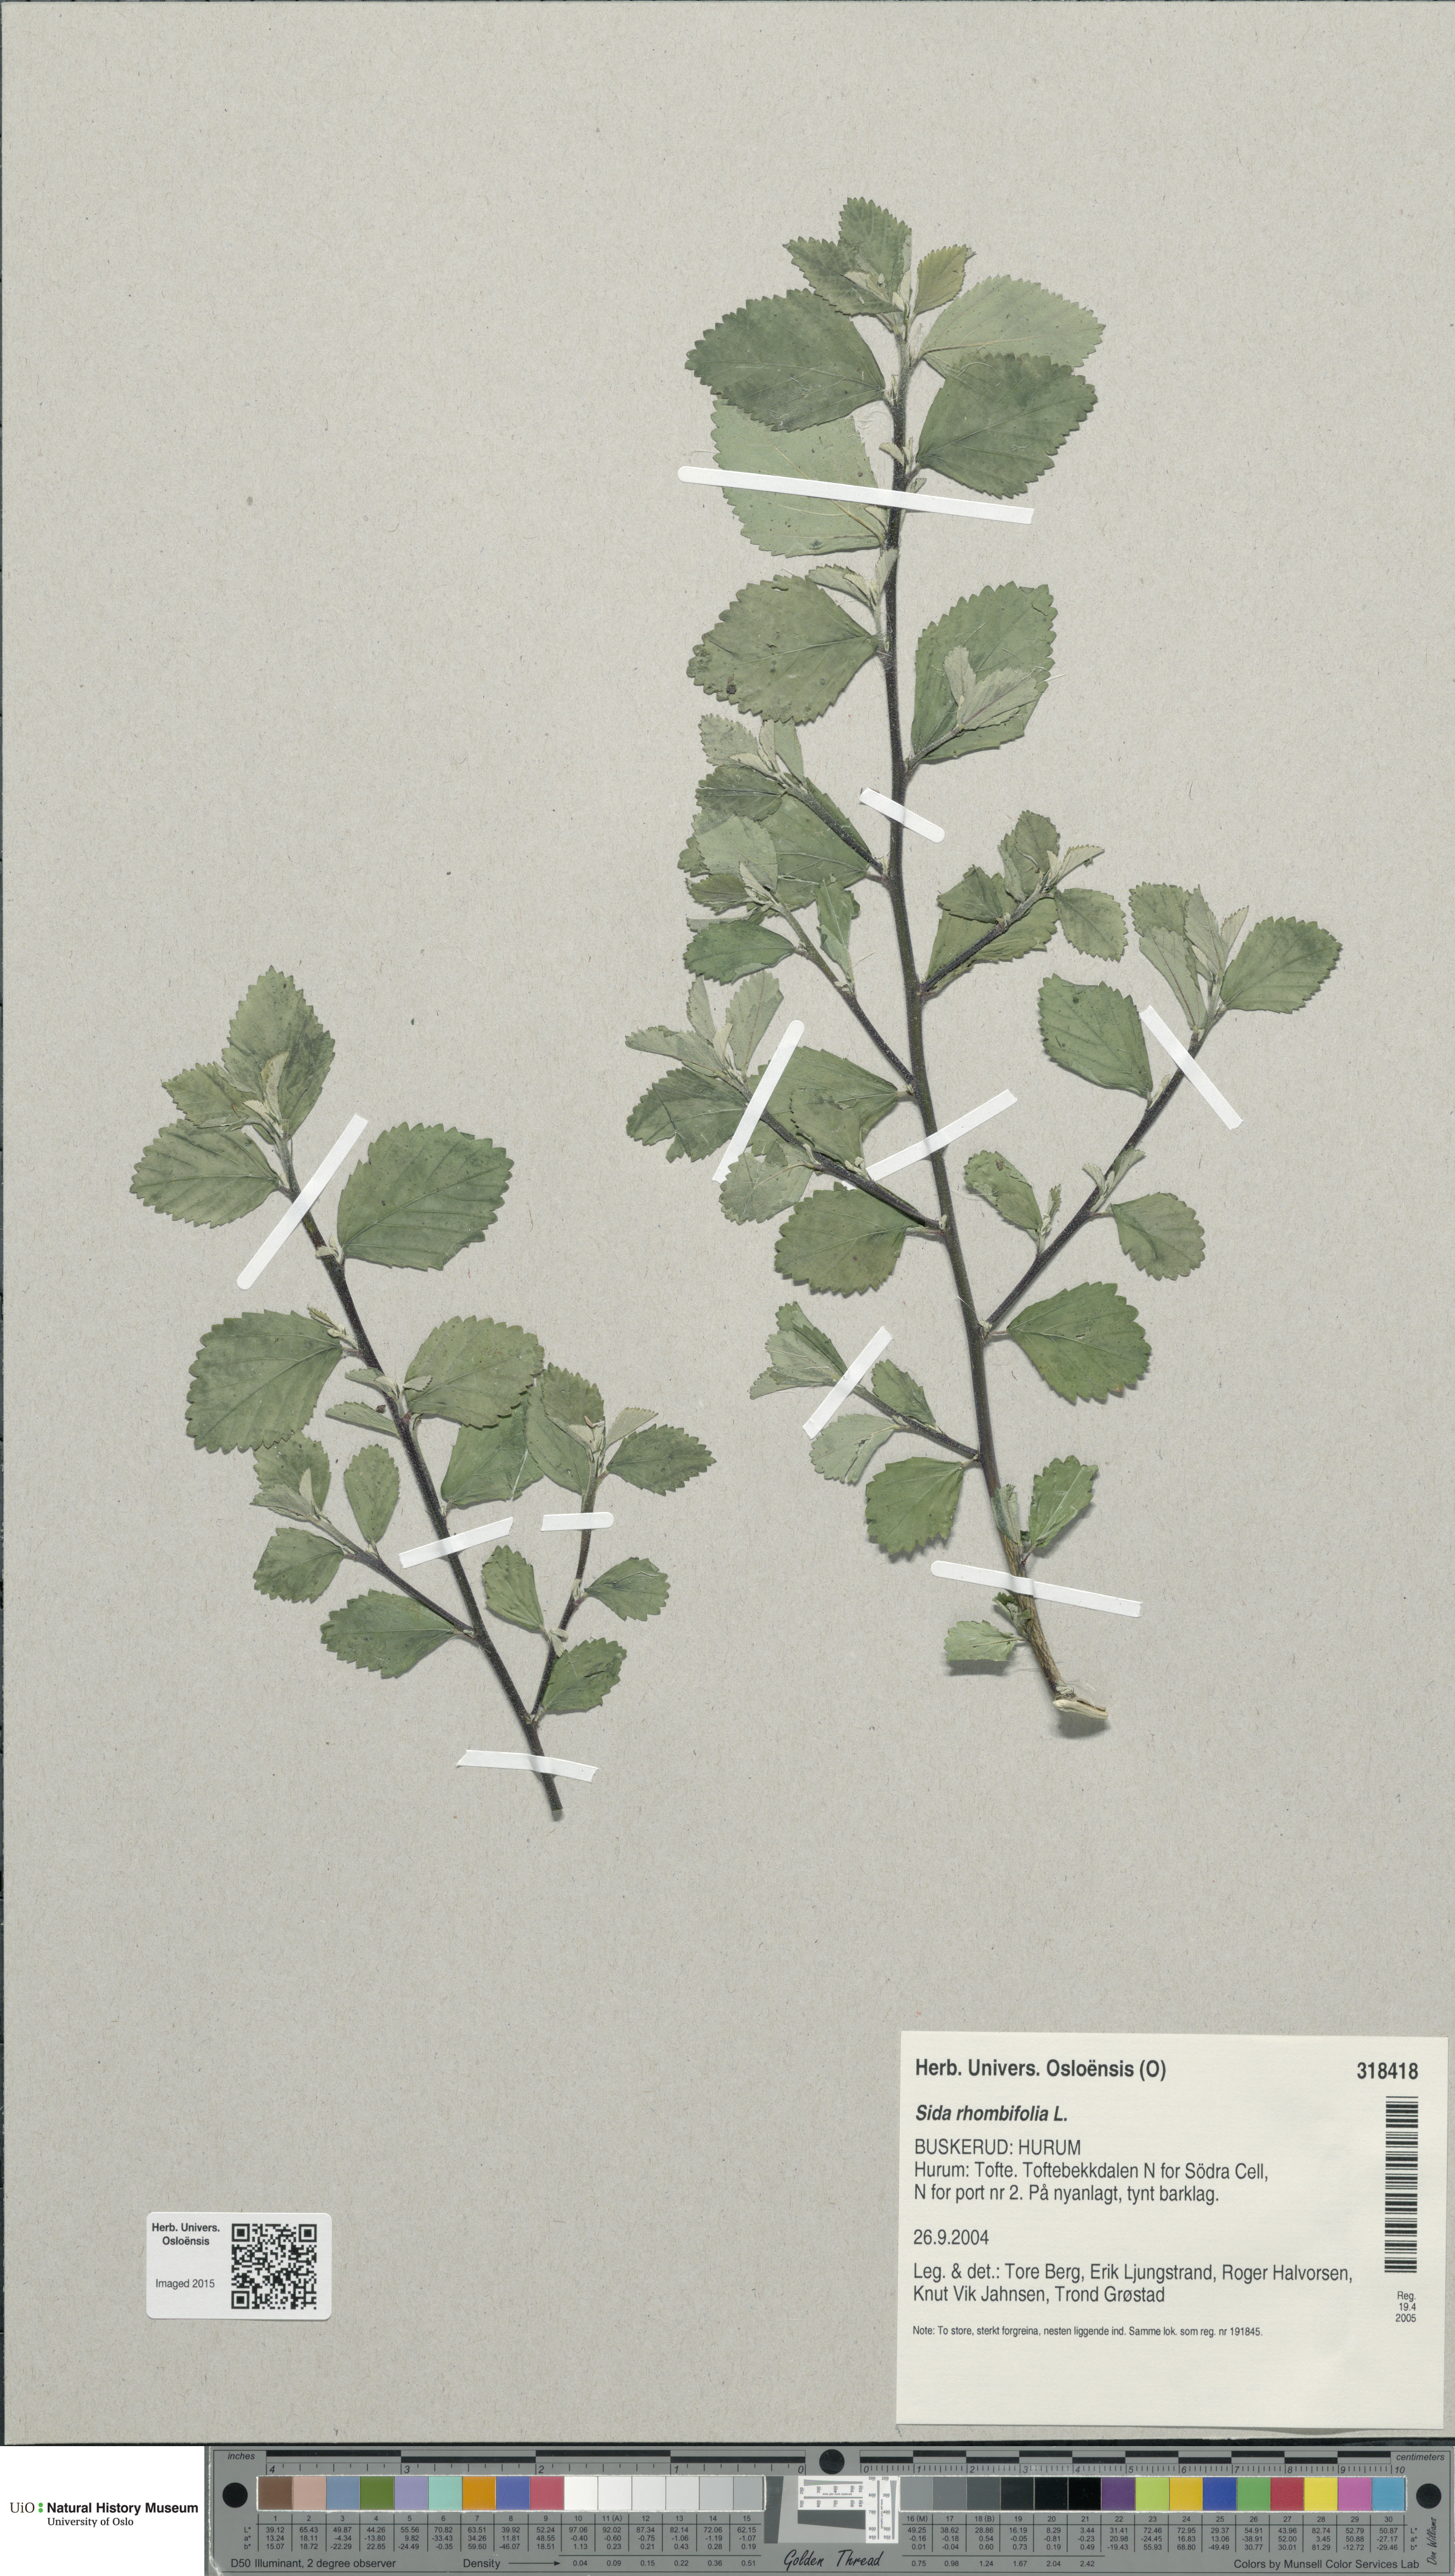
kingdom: Plantae
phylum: Tracheophyta
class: Magnoliopsida
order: Malvales
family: Malvaceae
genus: Sida
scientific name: Sida rhombifolia
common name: Queensland-hemp
